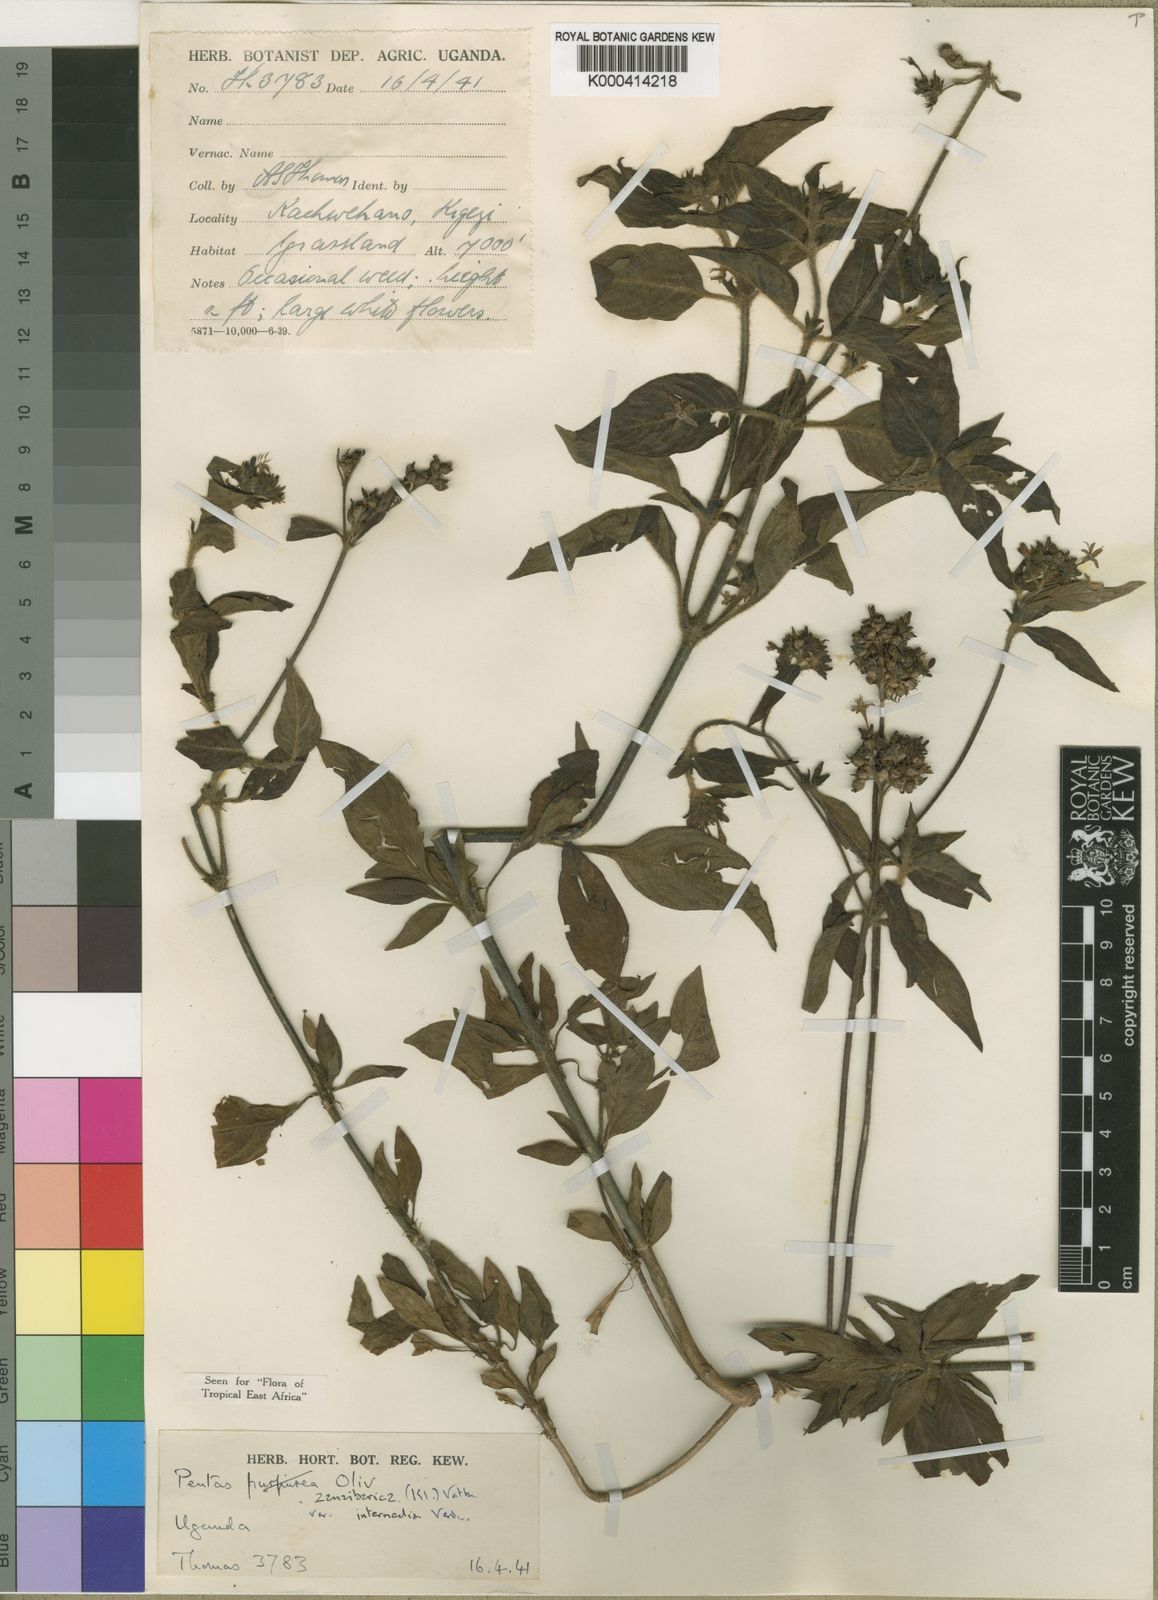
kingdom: Plantae
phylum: Tracheophyta
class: Magnoliopsida
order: Gentianales
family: Rubiaceae
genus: Pentas
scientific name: Pentas zanzibarica
